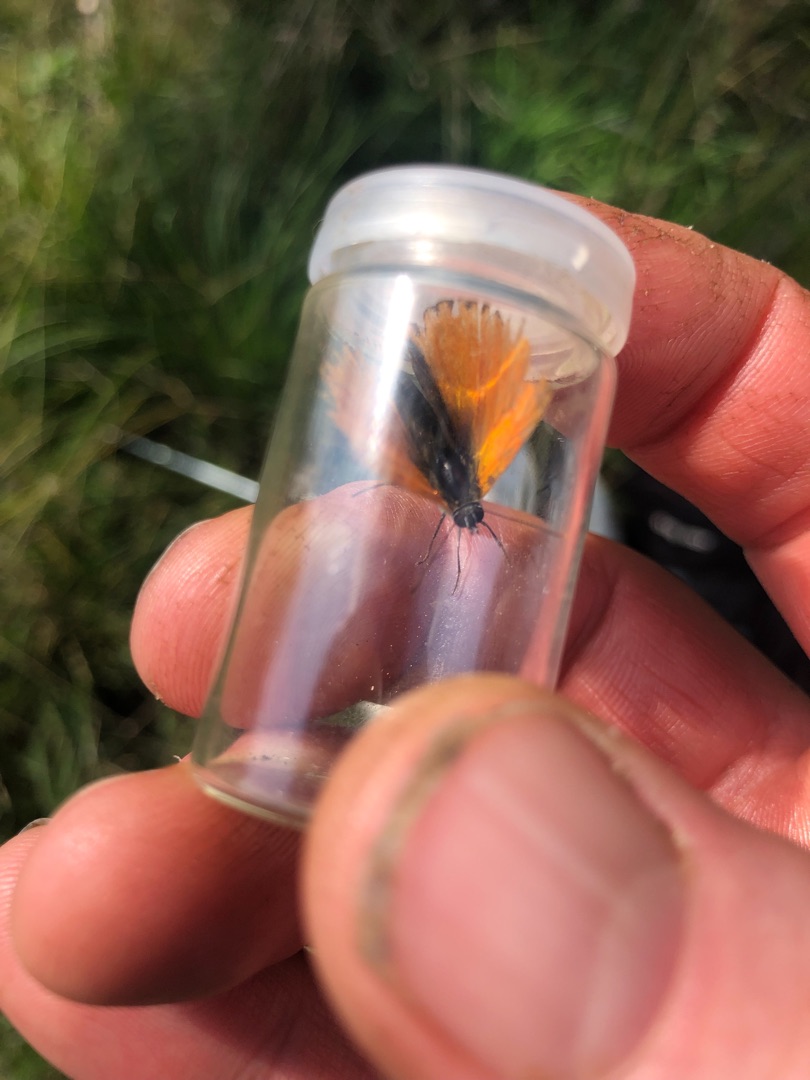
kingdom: Animalia
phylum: Arthropoda
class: Insecta
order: Lepidoptera
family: Lycaenidae
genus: Lycaena
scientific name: Lycaena virgaureae
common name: Dukatsommerfugl
